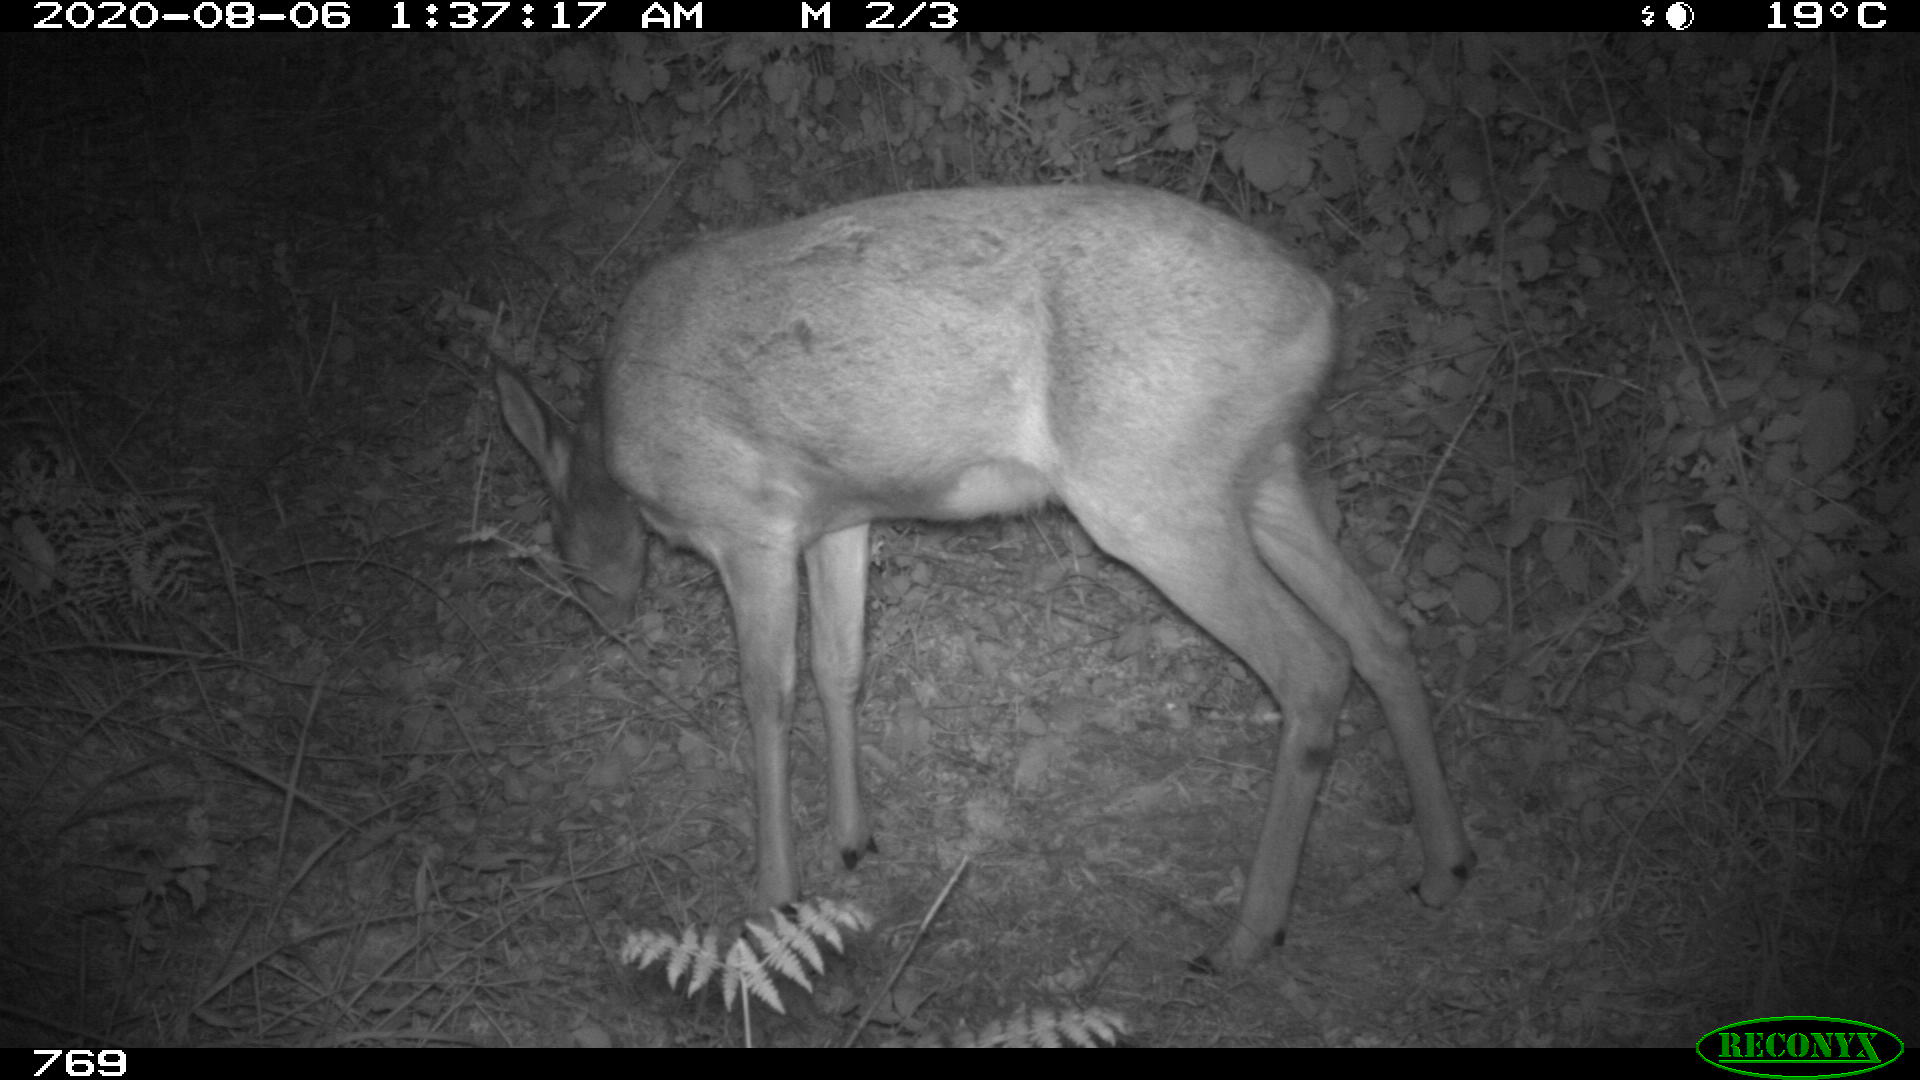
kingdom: Animalia
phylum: Chordata
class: Mammalia
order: Artiodactyla
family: Cervidae
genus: Capreolus
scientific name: Capreolus capreolus
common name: Western roe deer
